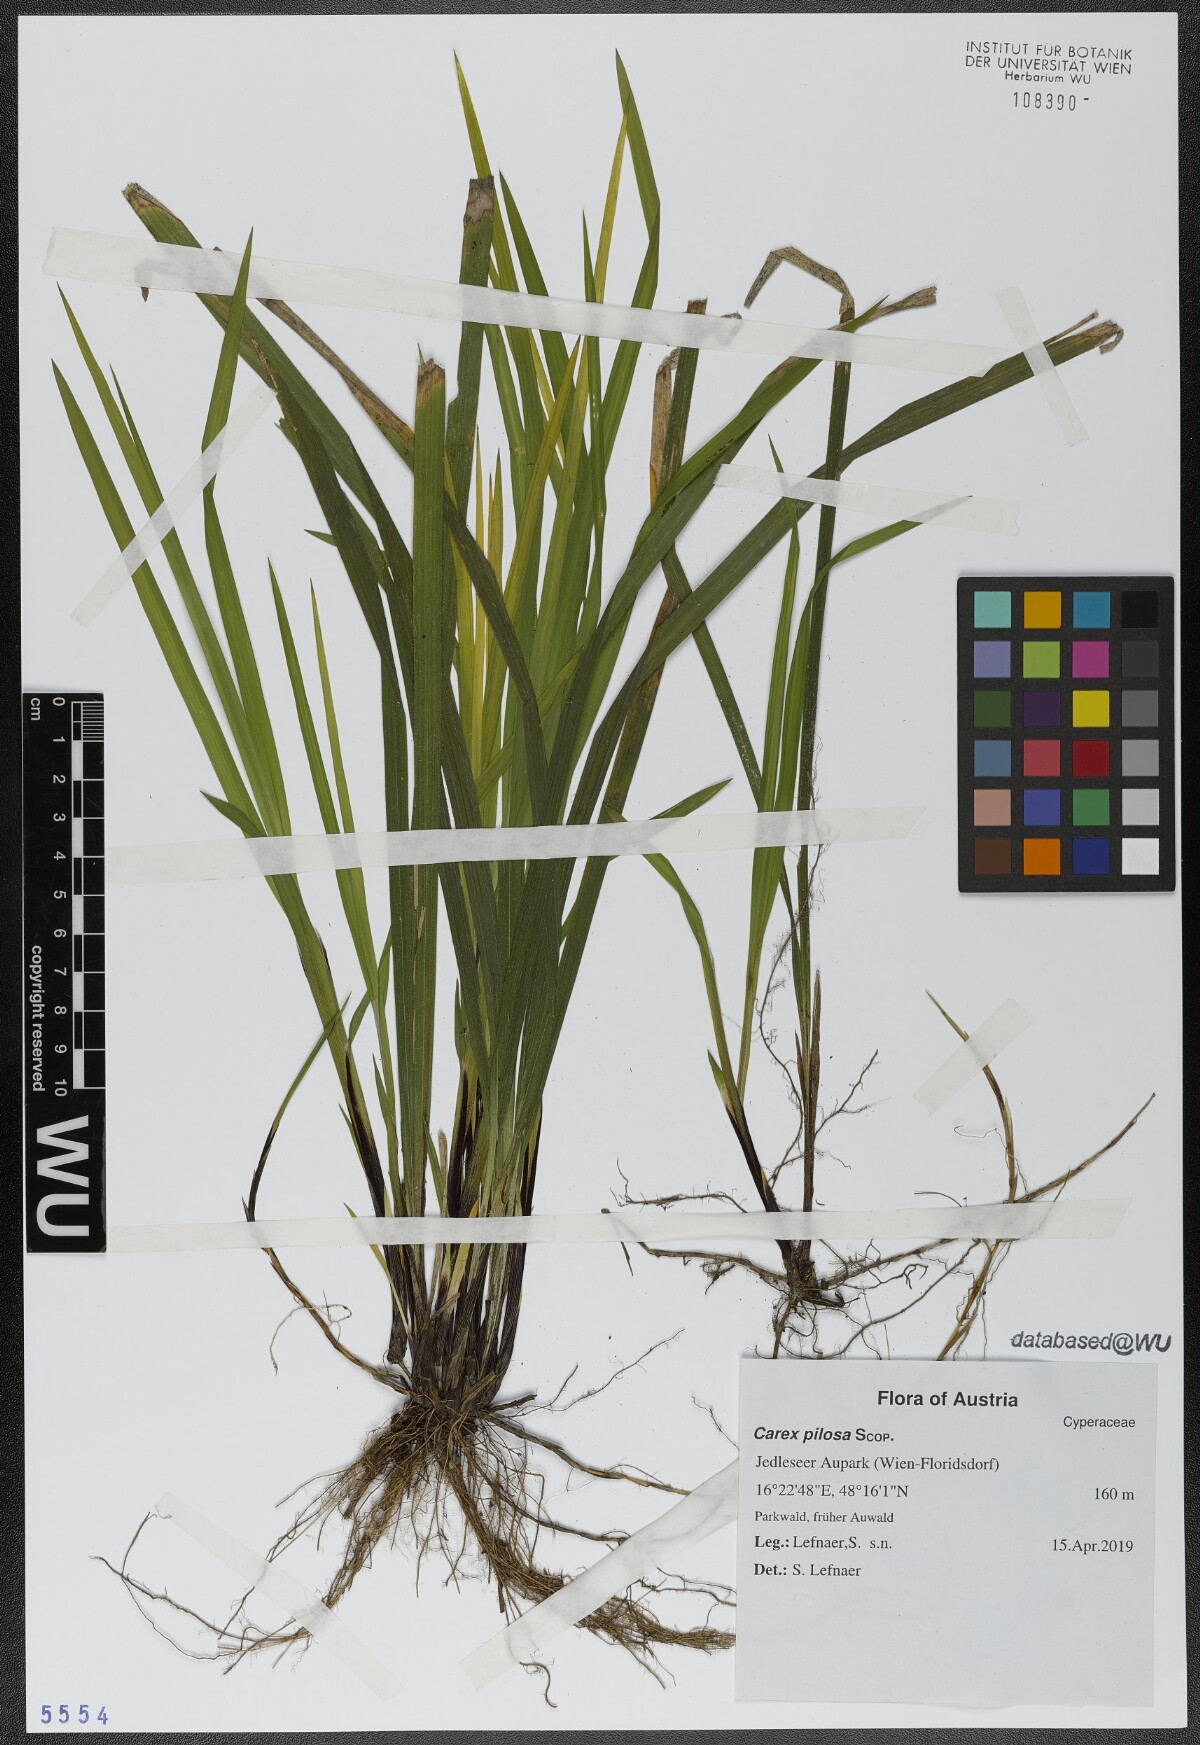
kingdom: Plantae
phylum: Tracheophyta
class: Liliopsida
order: Poales
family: Cyperaceae
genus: Carex
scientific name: Carex pilosa
